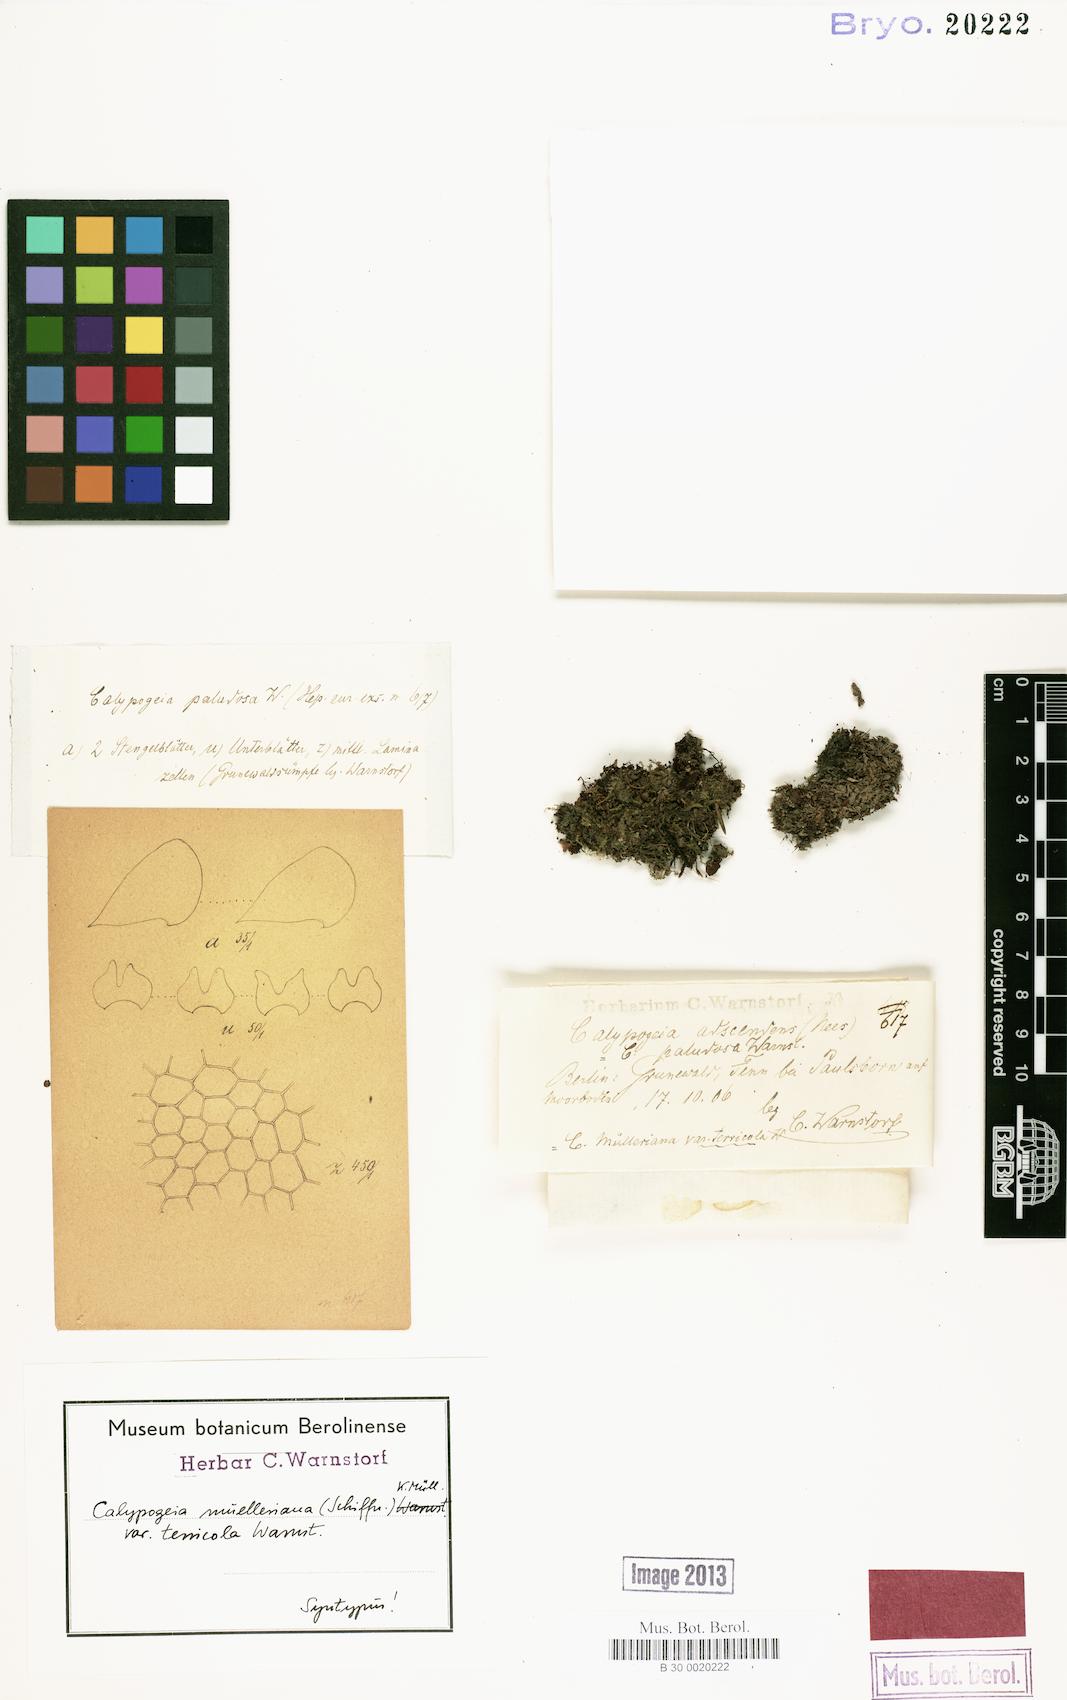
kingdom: Plantae
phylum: Marchantiophyta
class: Jungermanniopsida
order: Jungermanniales
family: Calypogeiaceae
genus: Calypogeia
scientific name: Calypogeia muelleriana
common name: Mueller s pouchwort
